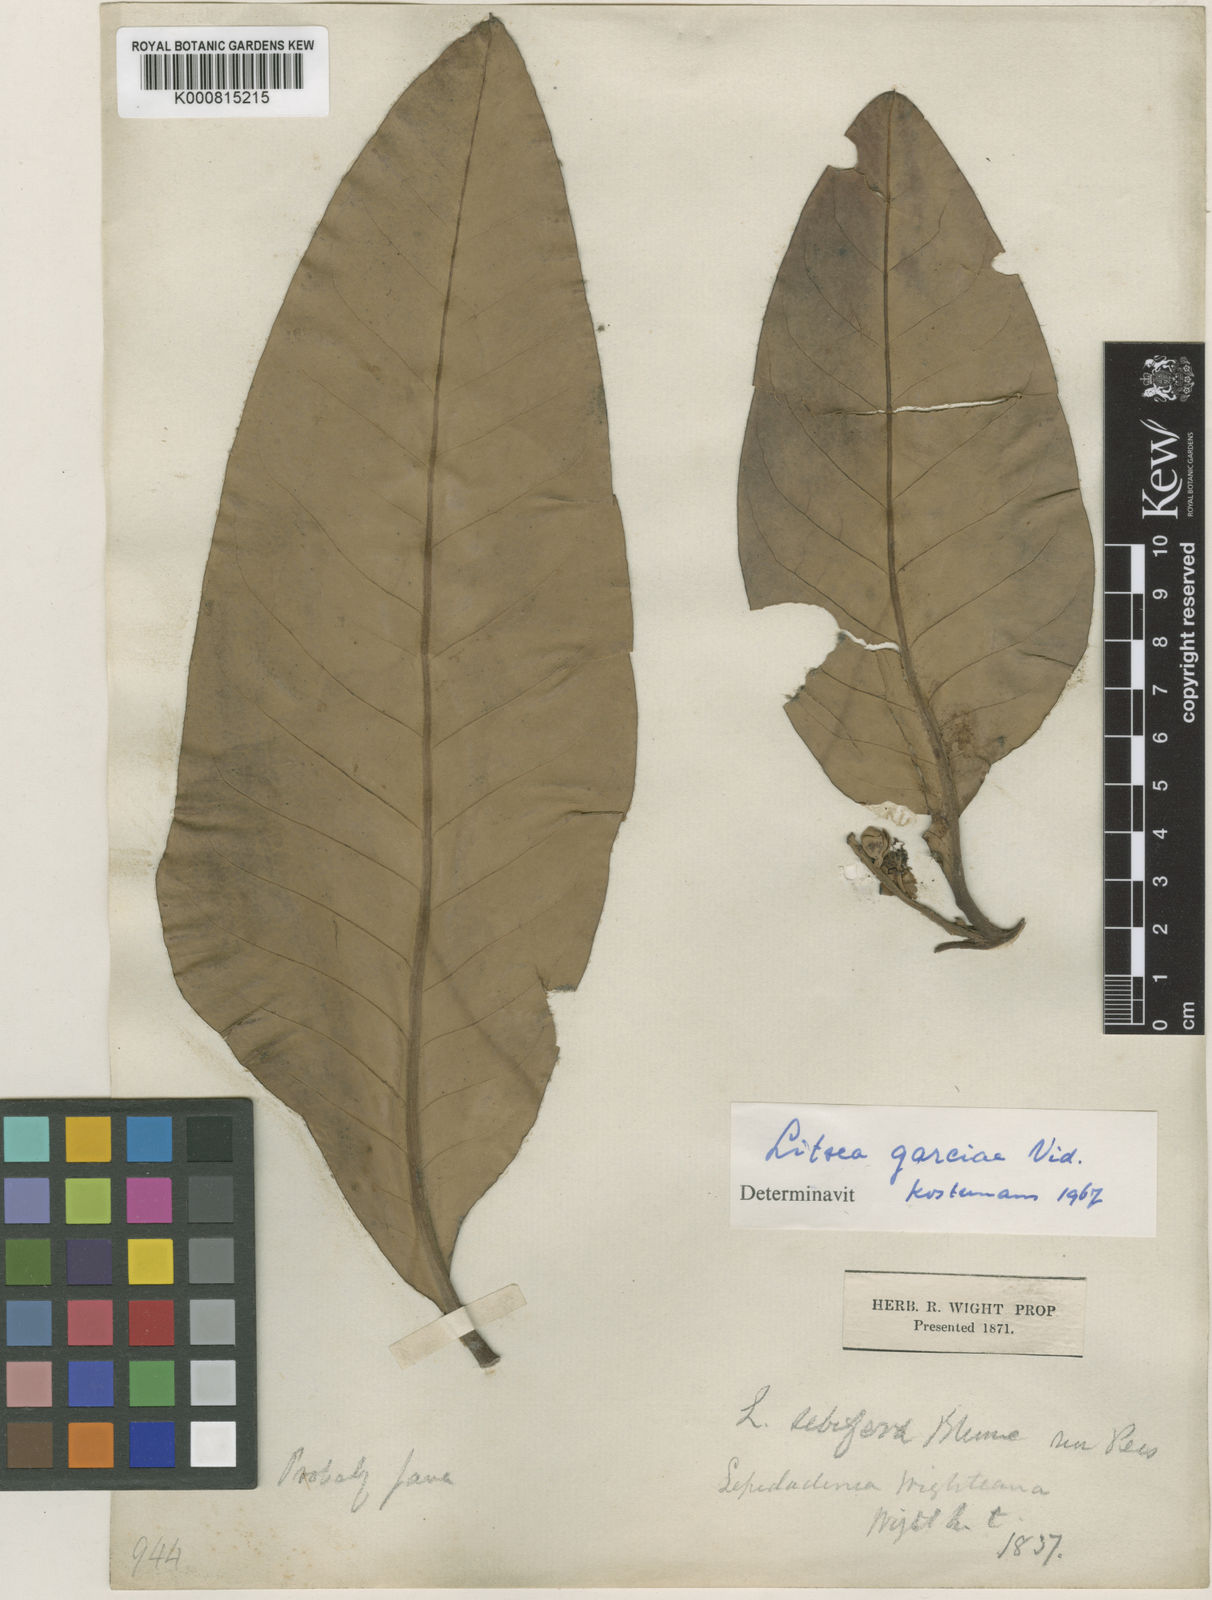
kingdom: Plantae
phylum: Tracheophyta
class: Magnoliopsida
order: Laurales
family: Lauraceae
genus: Litsea
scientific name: Litsea garciae
